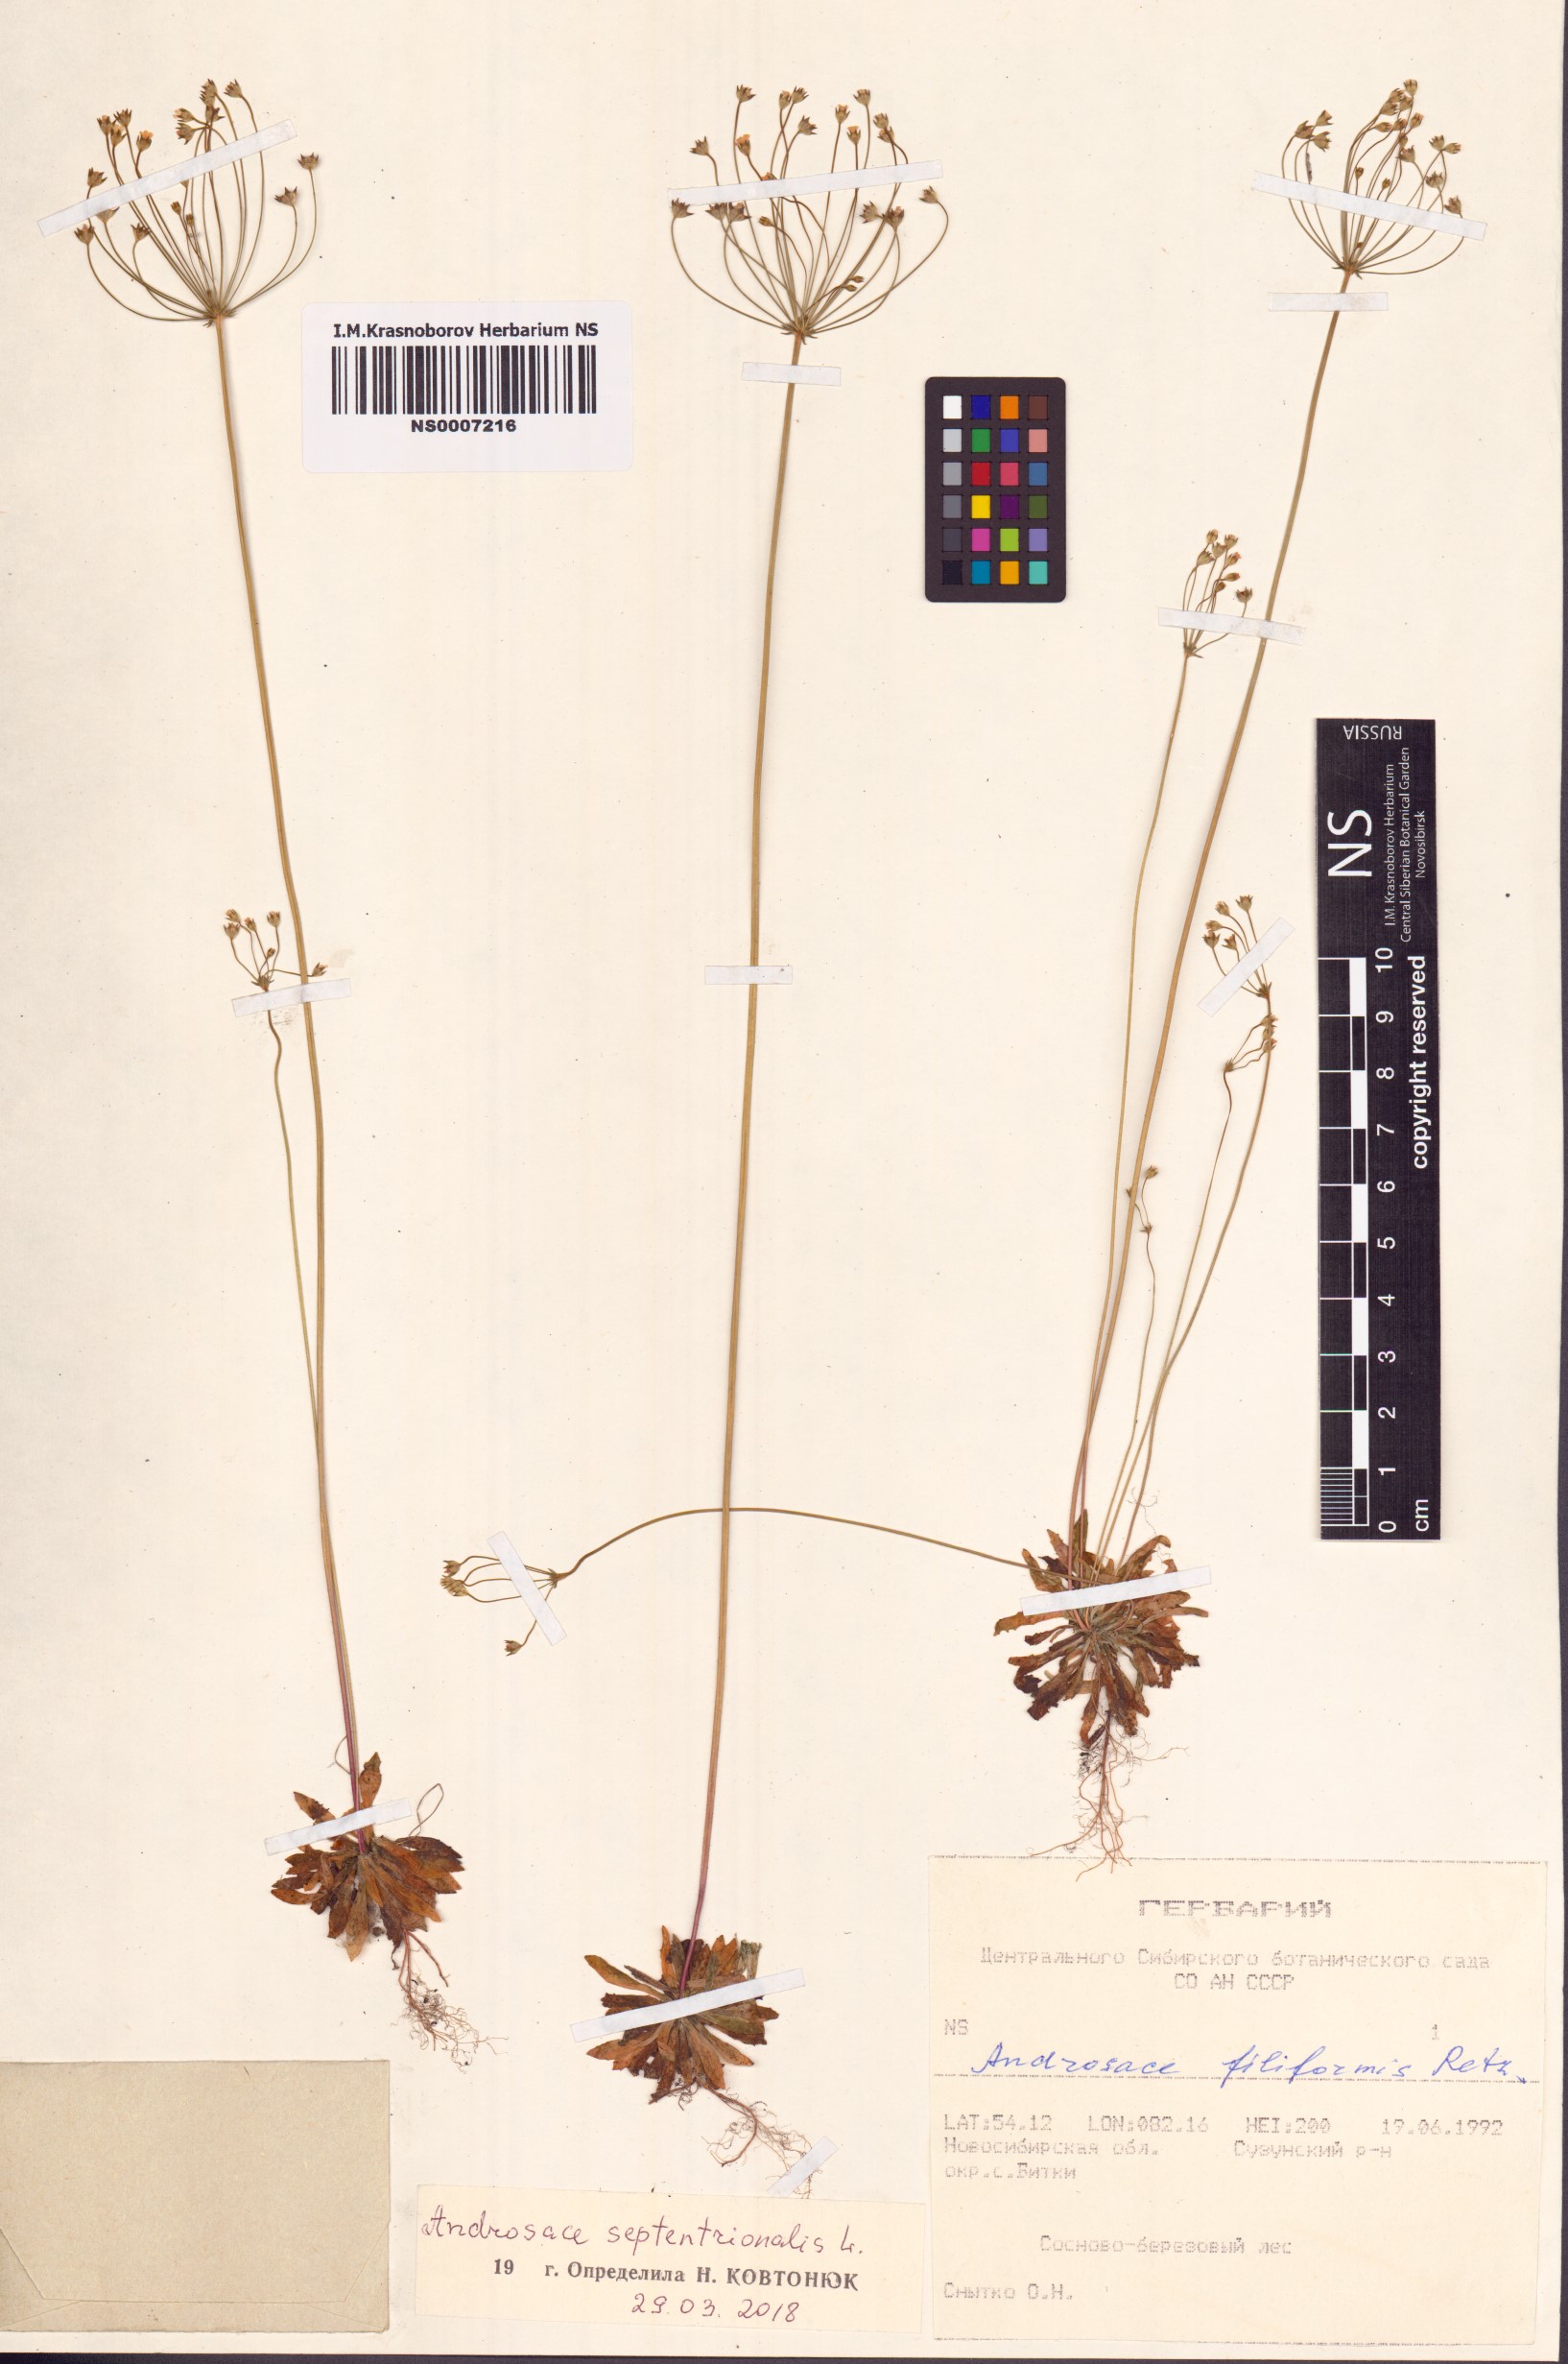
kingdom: Plantae
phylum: Tracheophyta
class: Magnoliopsida
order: Ericales
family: Primulaceae
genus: Androsace
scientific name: Androsace septentrionalis
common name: Hairy northern fairy-candelabra
